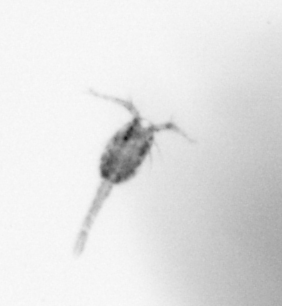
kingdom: Animalia
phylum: Arthropoda
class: Copepoda
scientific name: Copepoda
